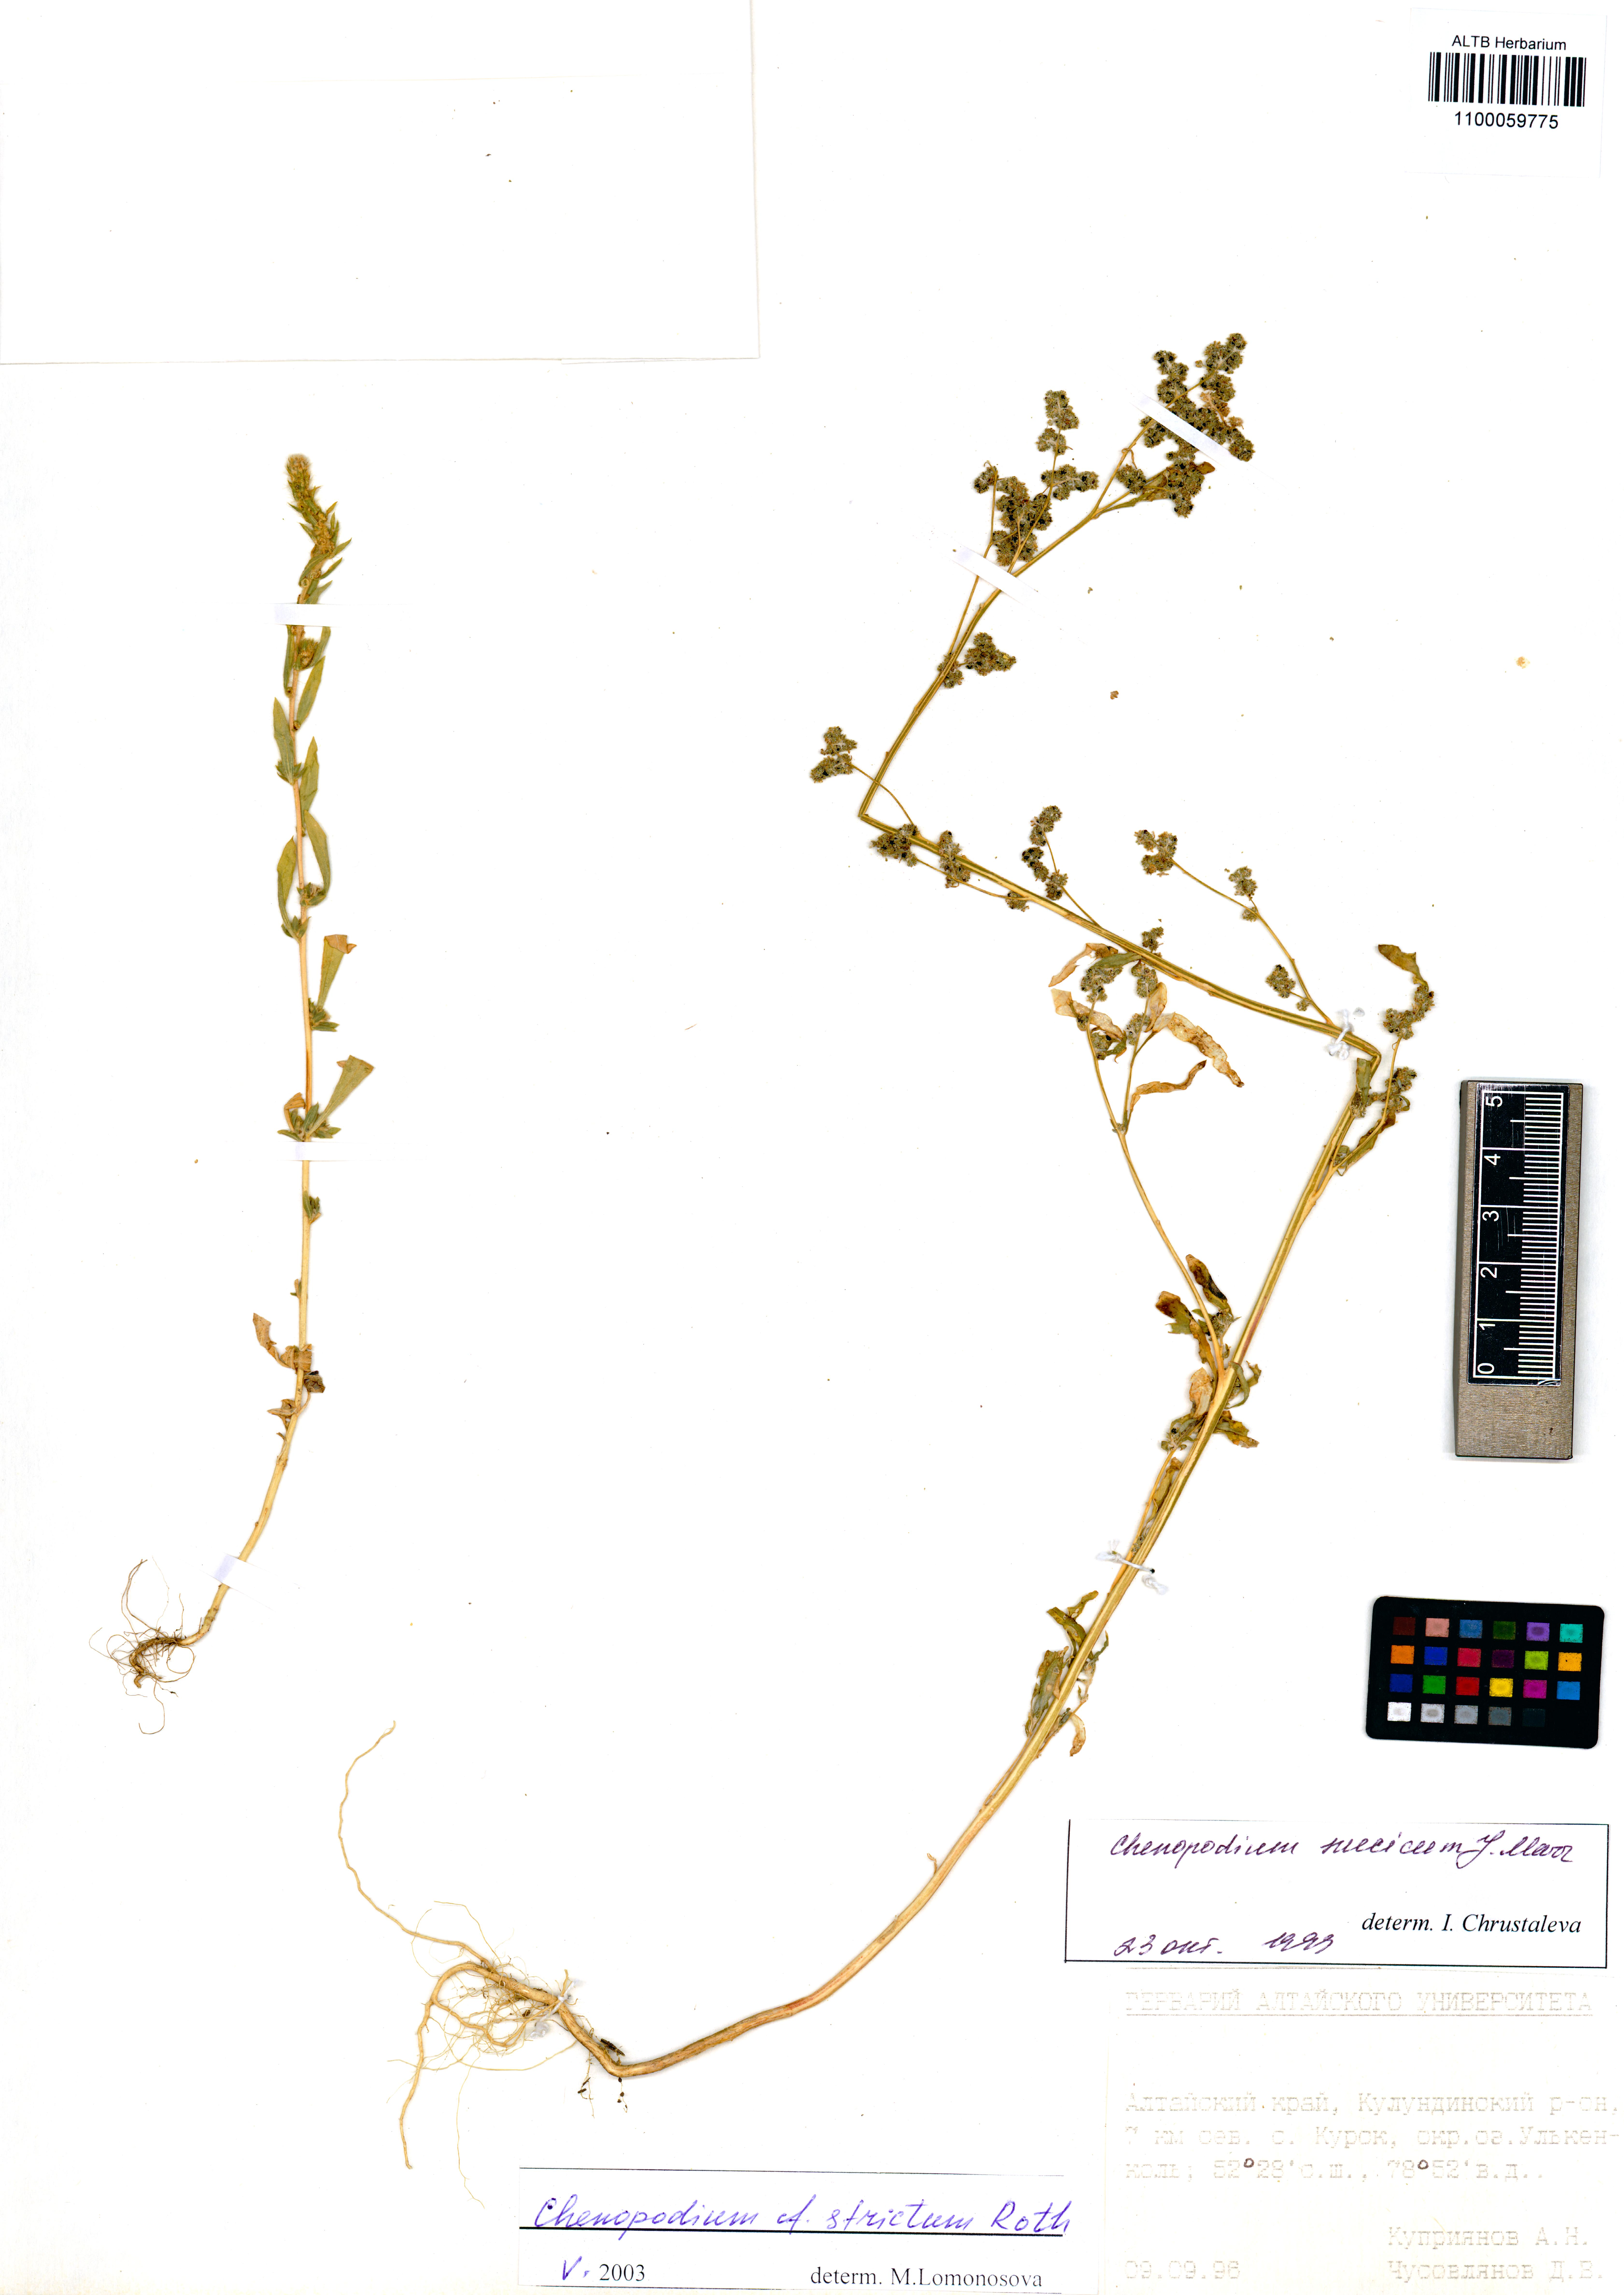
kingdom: Plantae
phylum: Tracheophyta
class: Magnoliopsida
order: Caryophyllales
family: Amaranthaceae
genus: Chenopodium
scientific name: Chenopodium album
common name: Fat-hen
